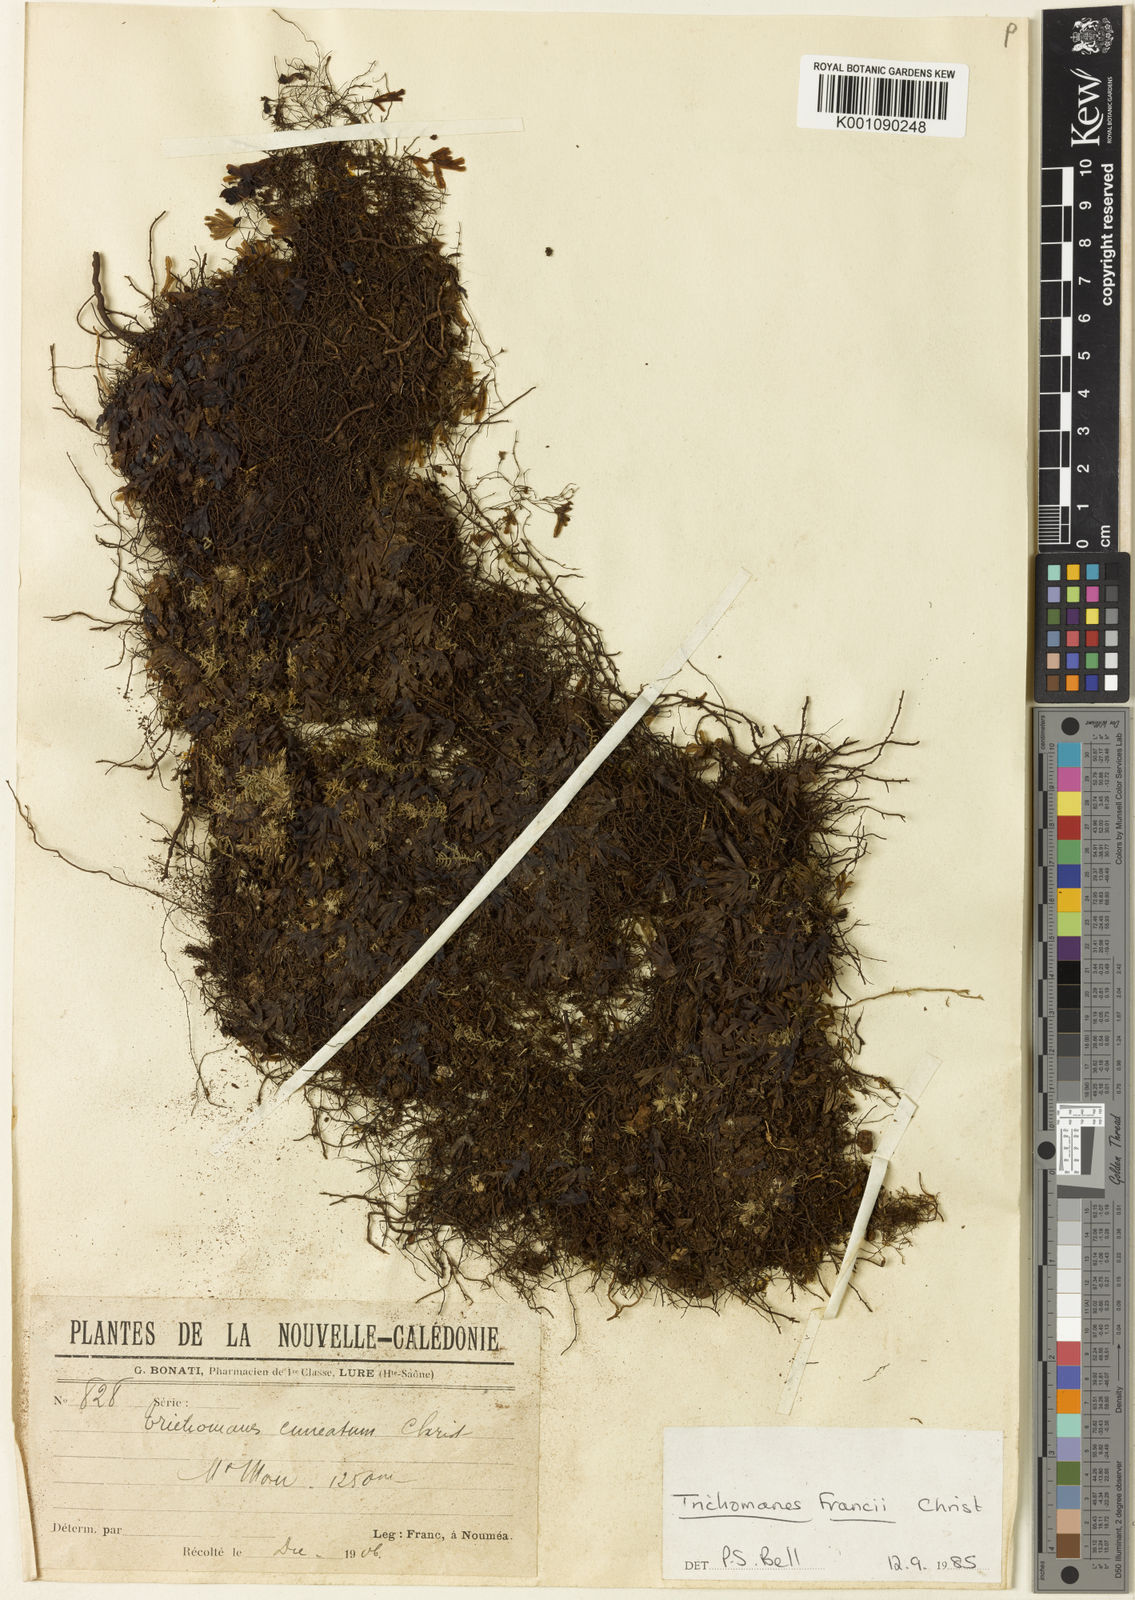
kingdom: Plantae
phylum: Tracheophyta
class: Polypodiopsida
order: Hymenophyllales
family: Hymenophyllaceae
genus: Hymenophyllum
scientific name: Hymenophyllum francii
